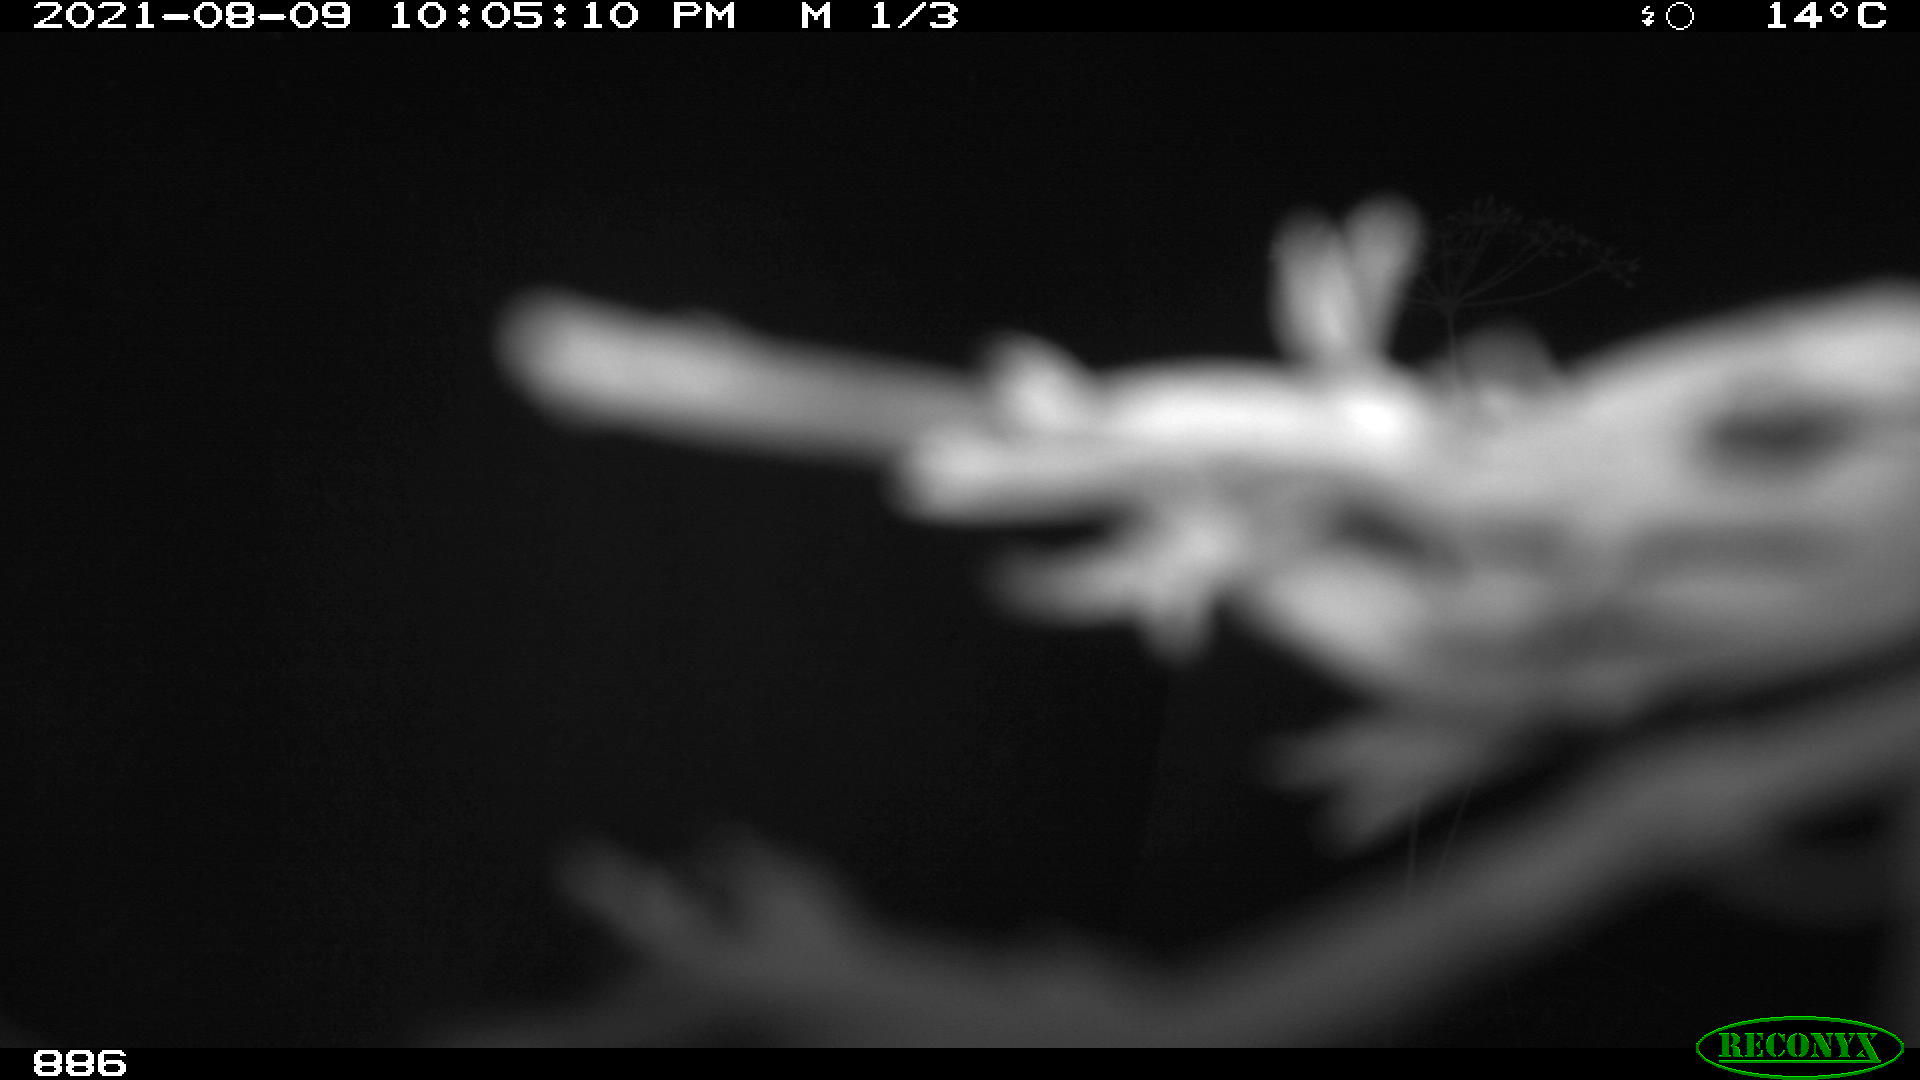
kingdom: Animalia
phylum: Chordata
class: Mammalia
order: Perissodactyla
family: Equidae
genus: Equus
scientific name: Equus caballus
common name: Horse
